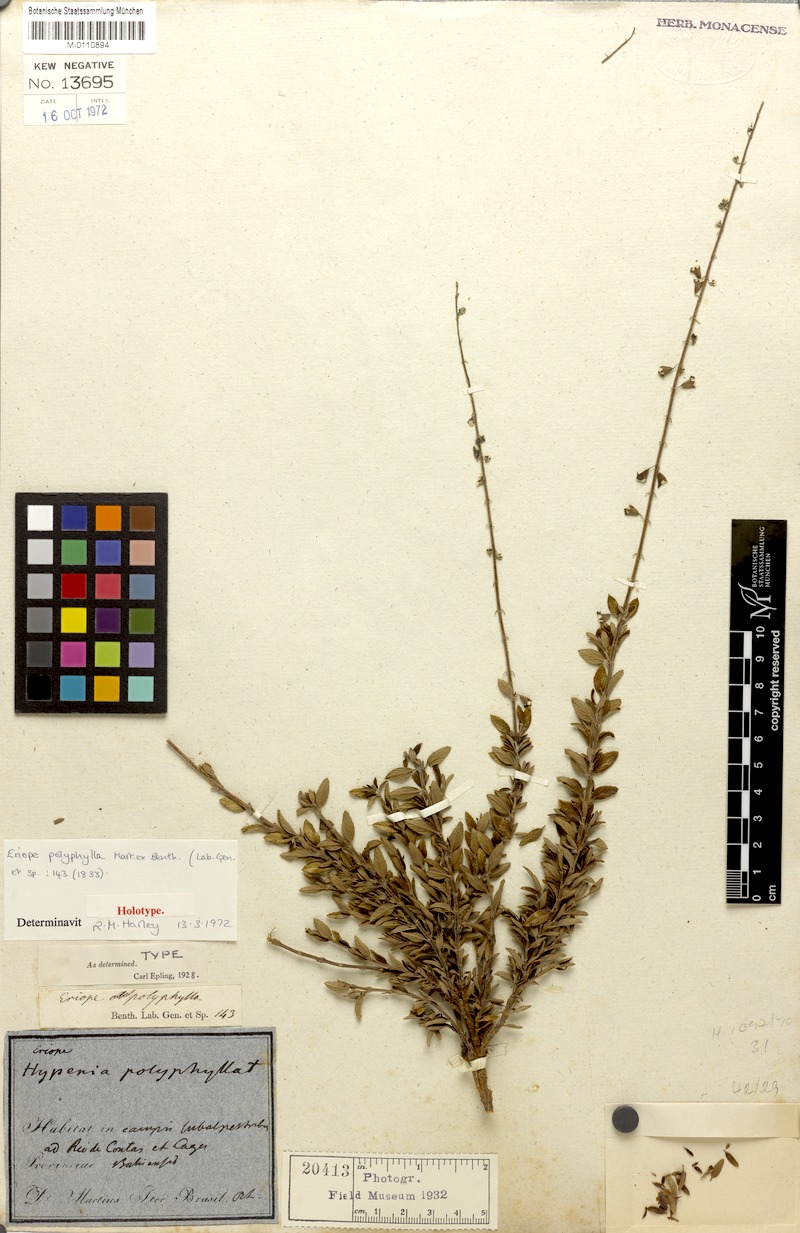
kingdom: Plantae
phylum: Tracheophyta
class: Magnoliopsida
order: Lamiales
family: Lamiaceae
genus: Eriope
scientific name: Eriope polyphylla
